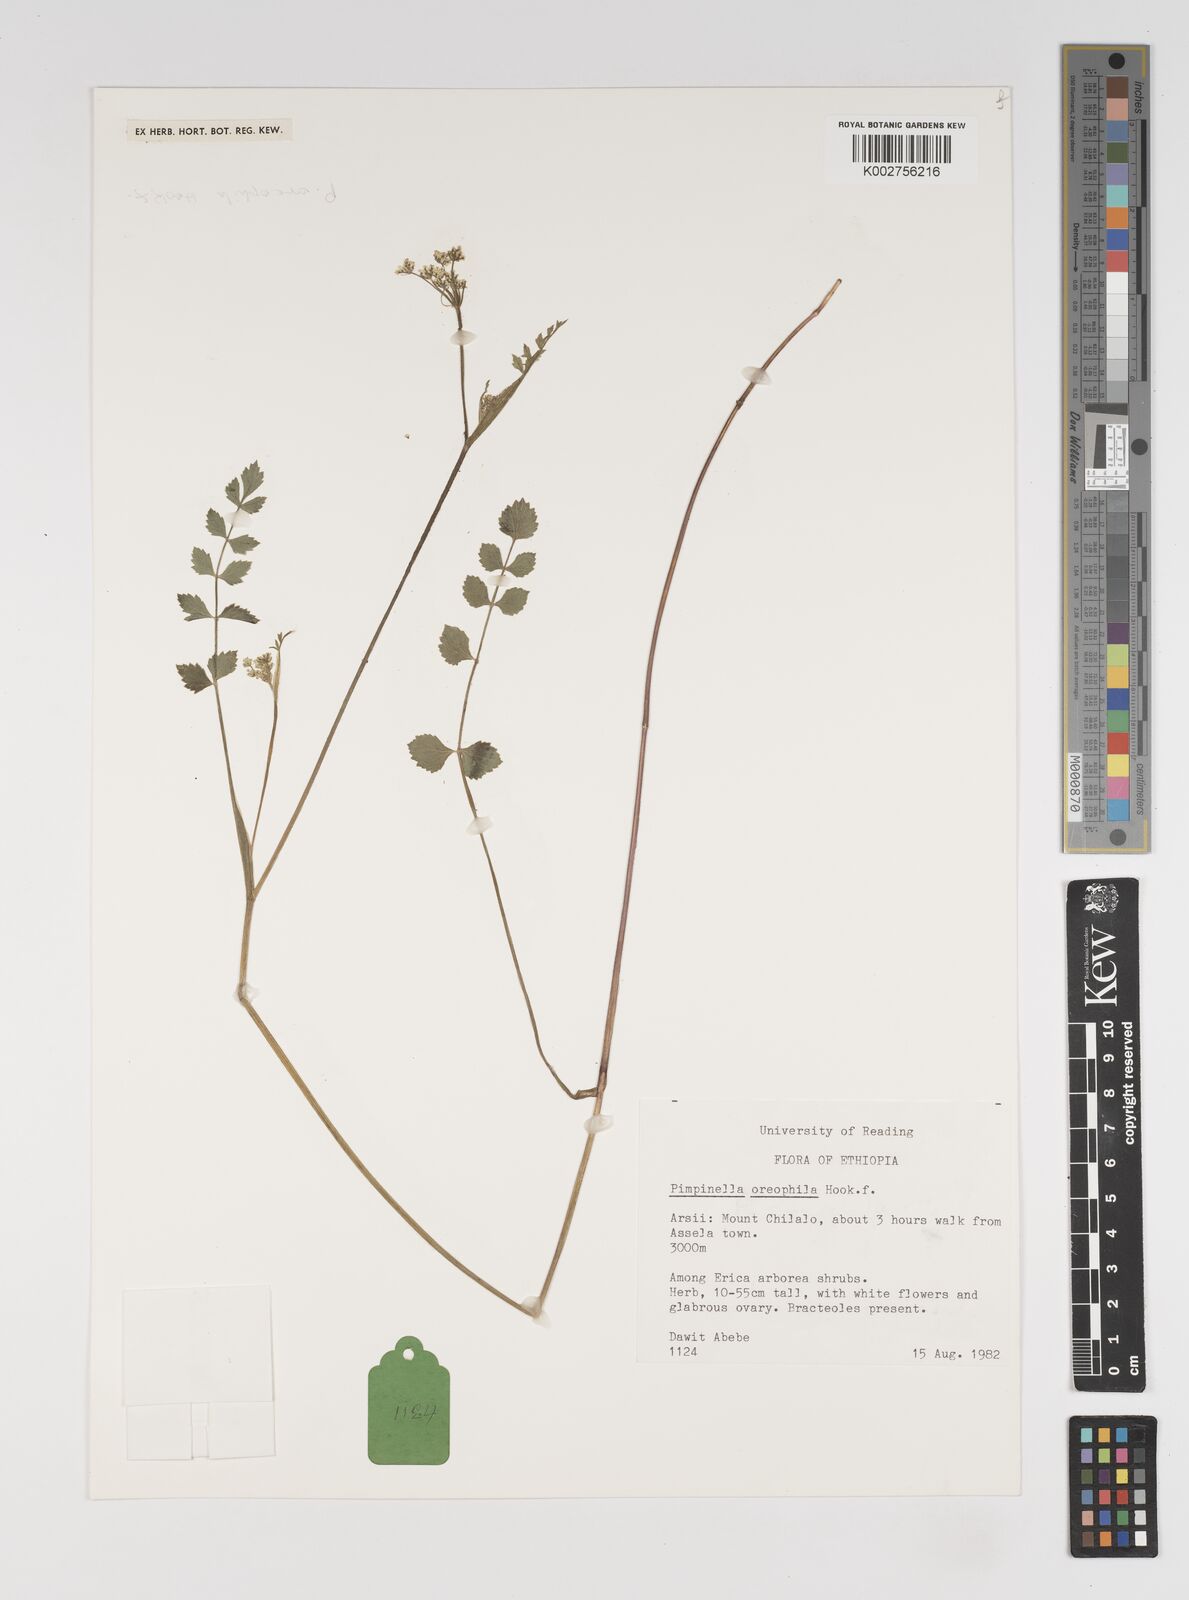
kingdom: Plantae
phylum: Tracheophyta
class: Magnoliopsida
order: Apiales
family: Apiaceae
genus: Pimpinella
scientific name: Pimpinella oreophila
